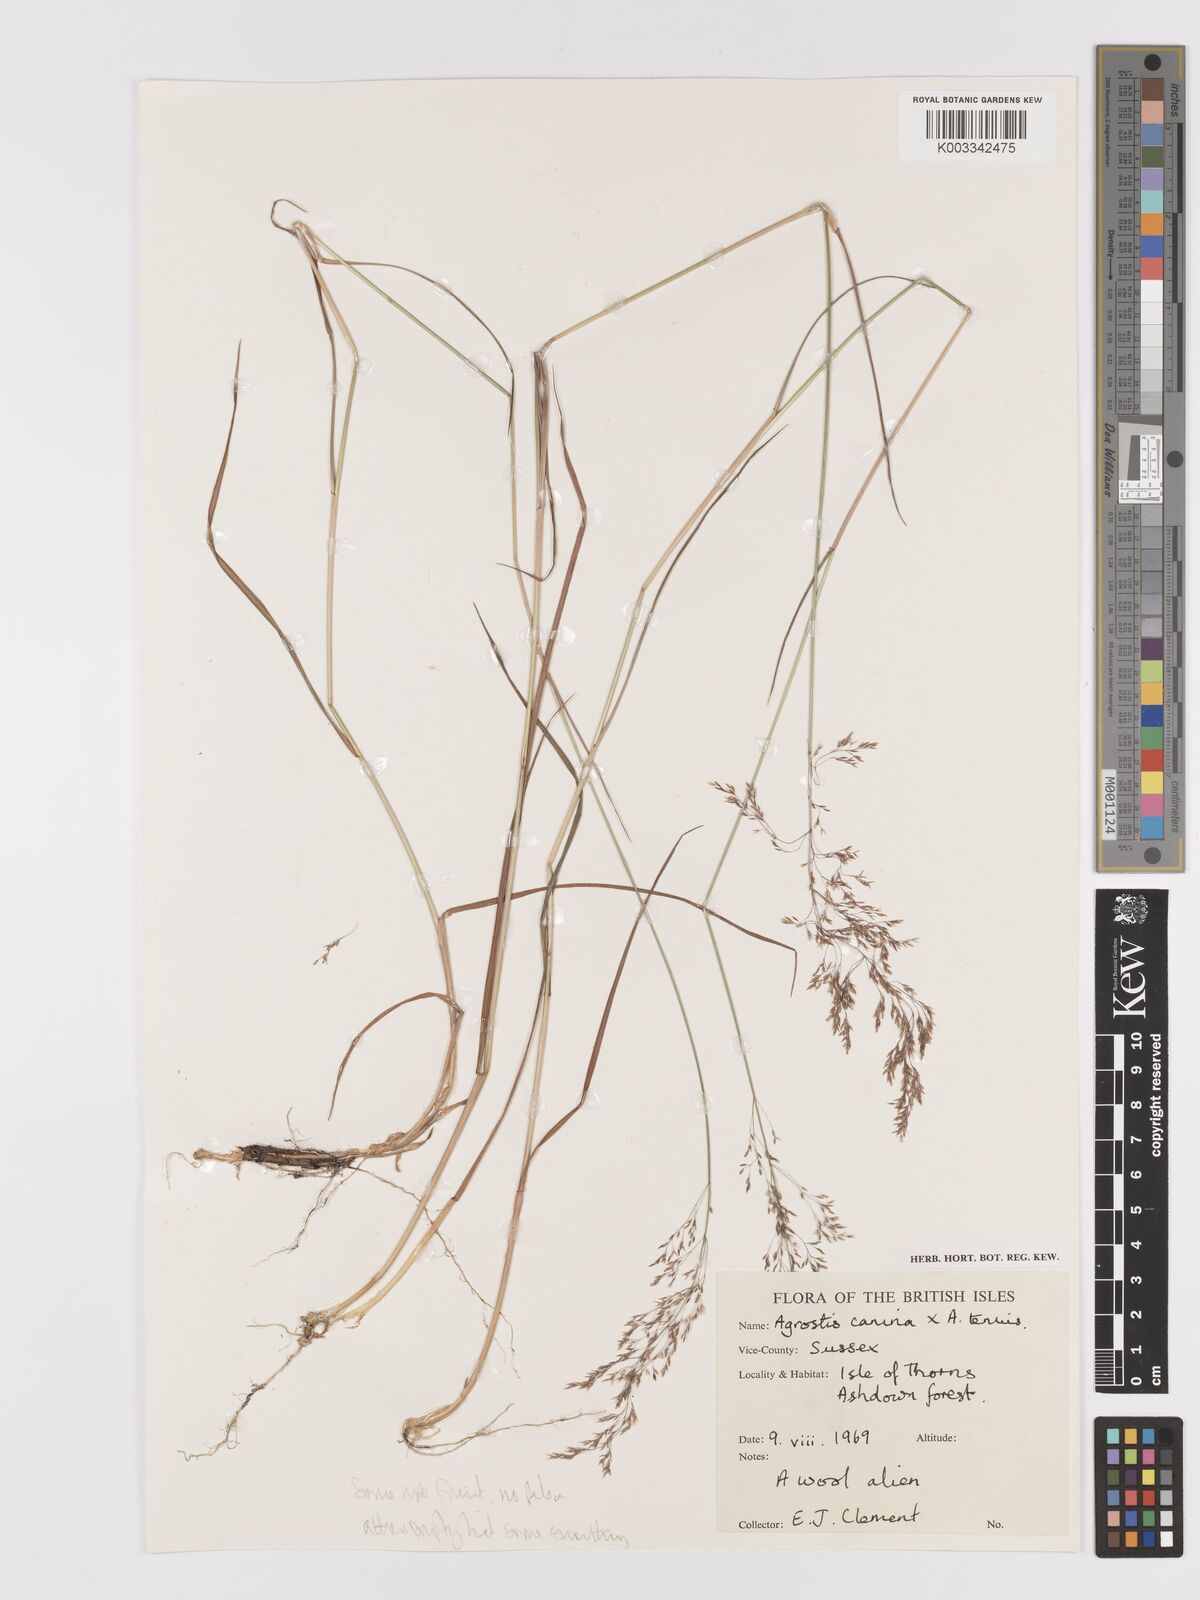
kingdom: Plantae
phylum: Tracheophyta
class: Liliopsida
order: Poales
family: Poaceae
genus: Agrostis
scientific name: Agrostis capillaris
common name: Colonial bentgrass
